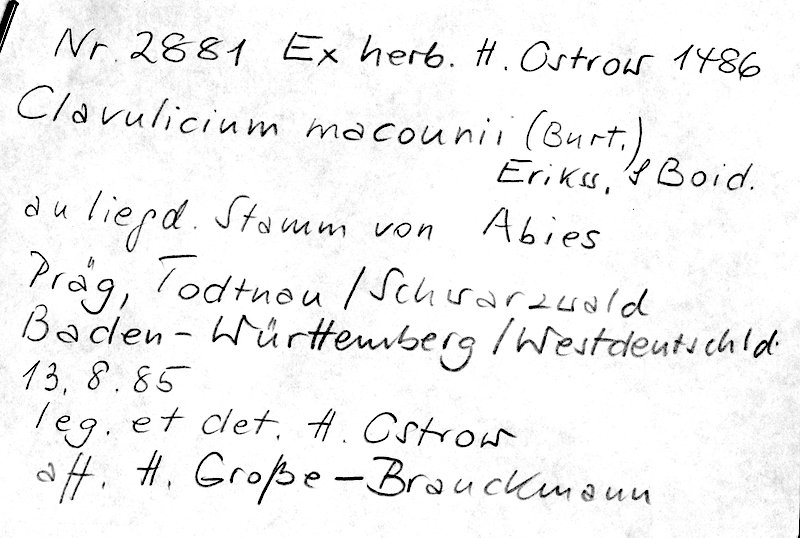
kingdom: Plantae
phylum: Tracheophyta
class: Pinopsida
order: Pinales
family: Pinaceae
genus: Abies
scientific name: Abies
